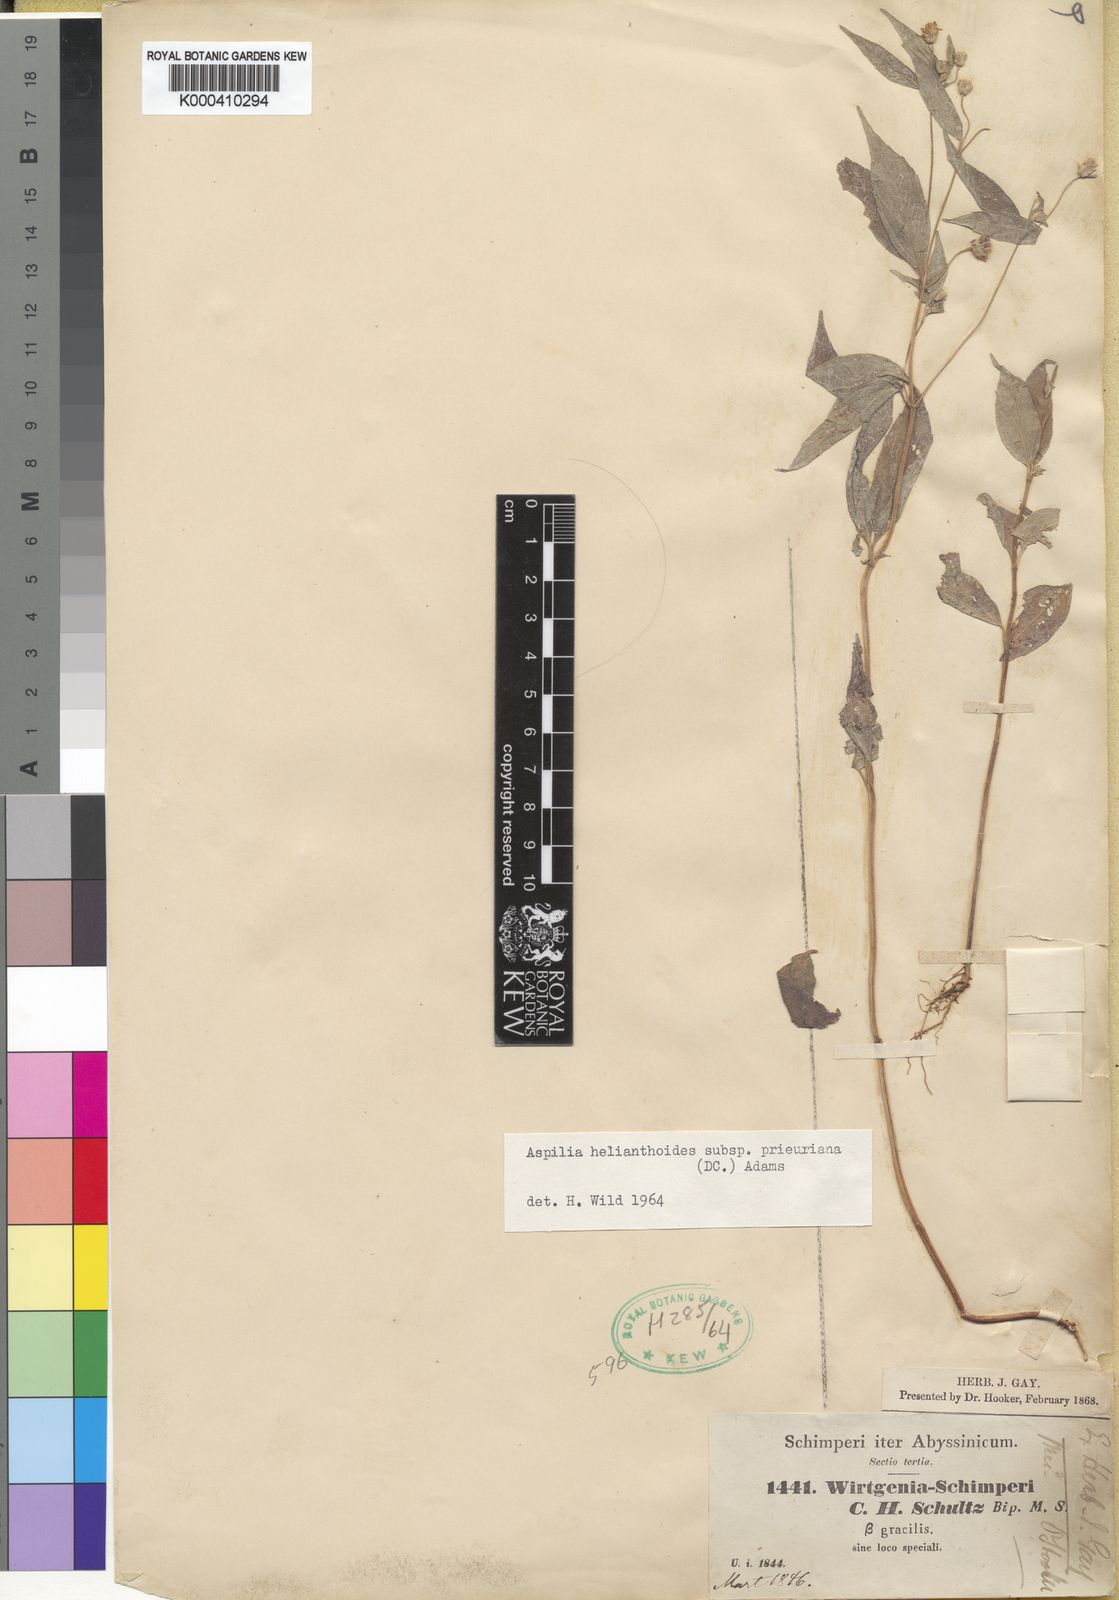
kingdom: Plantae
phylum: Tracheophyta
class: Magnoliopsida
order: Asterales
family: Asteraceae
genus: Aspilia
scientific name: Aspilia ciliata
